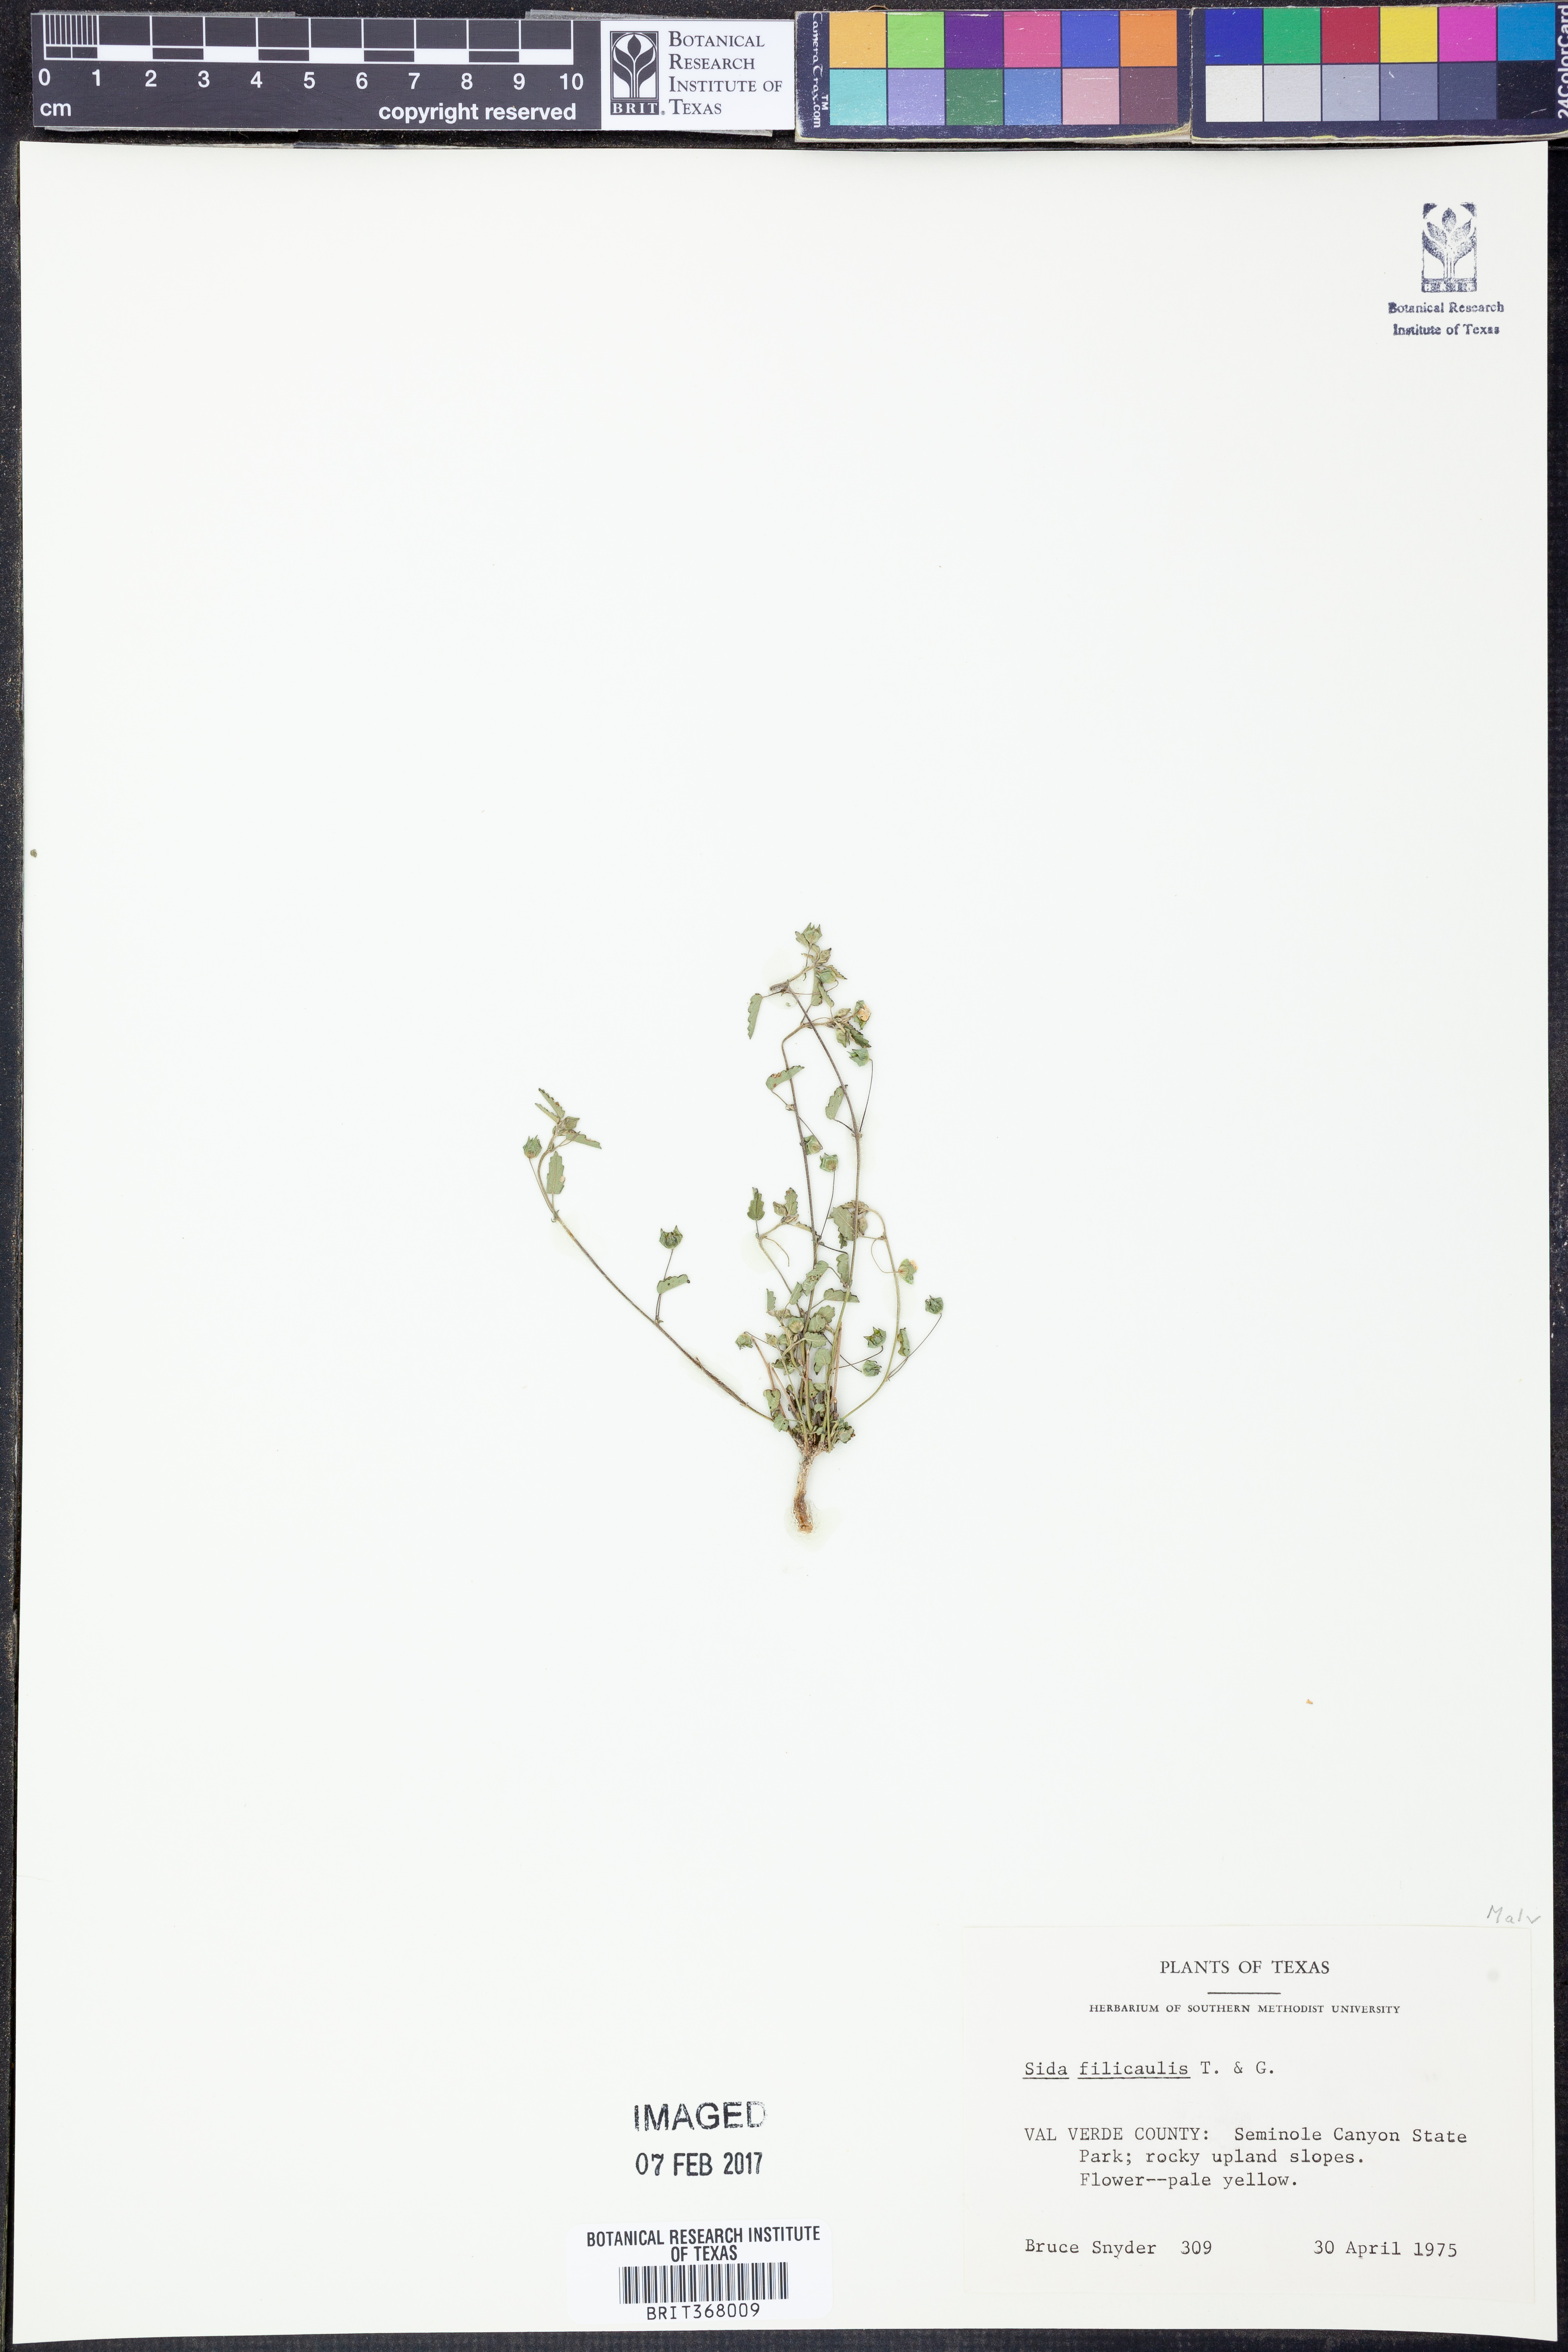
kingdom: Plantae
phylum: Tracheophyta
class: Magnoliopsida
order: Malvales
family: Malvaceae
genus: Sida
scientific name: Sida abutilifolia
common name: Spreading fanpetals
